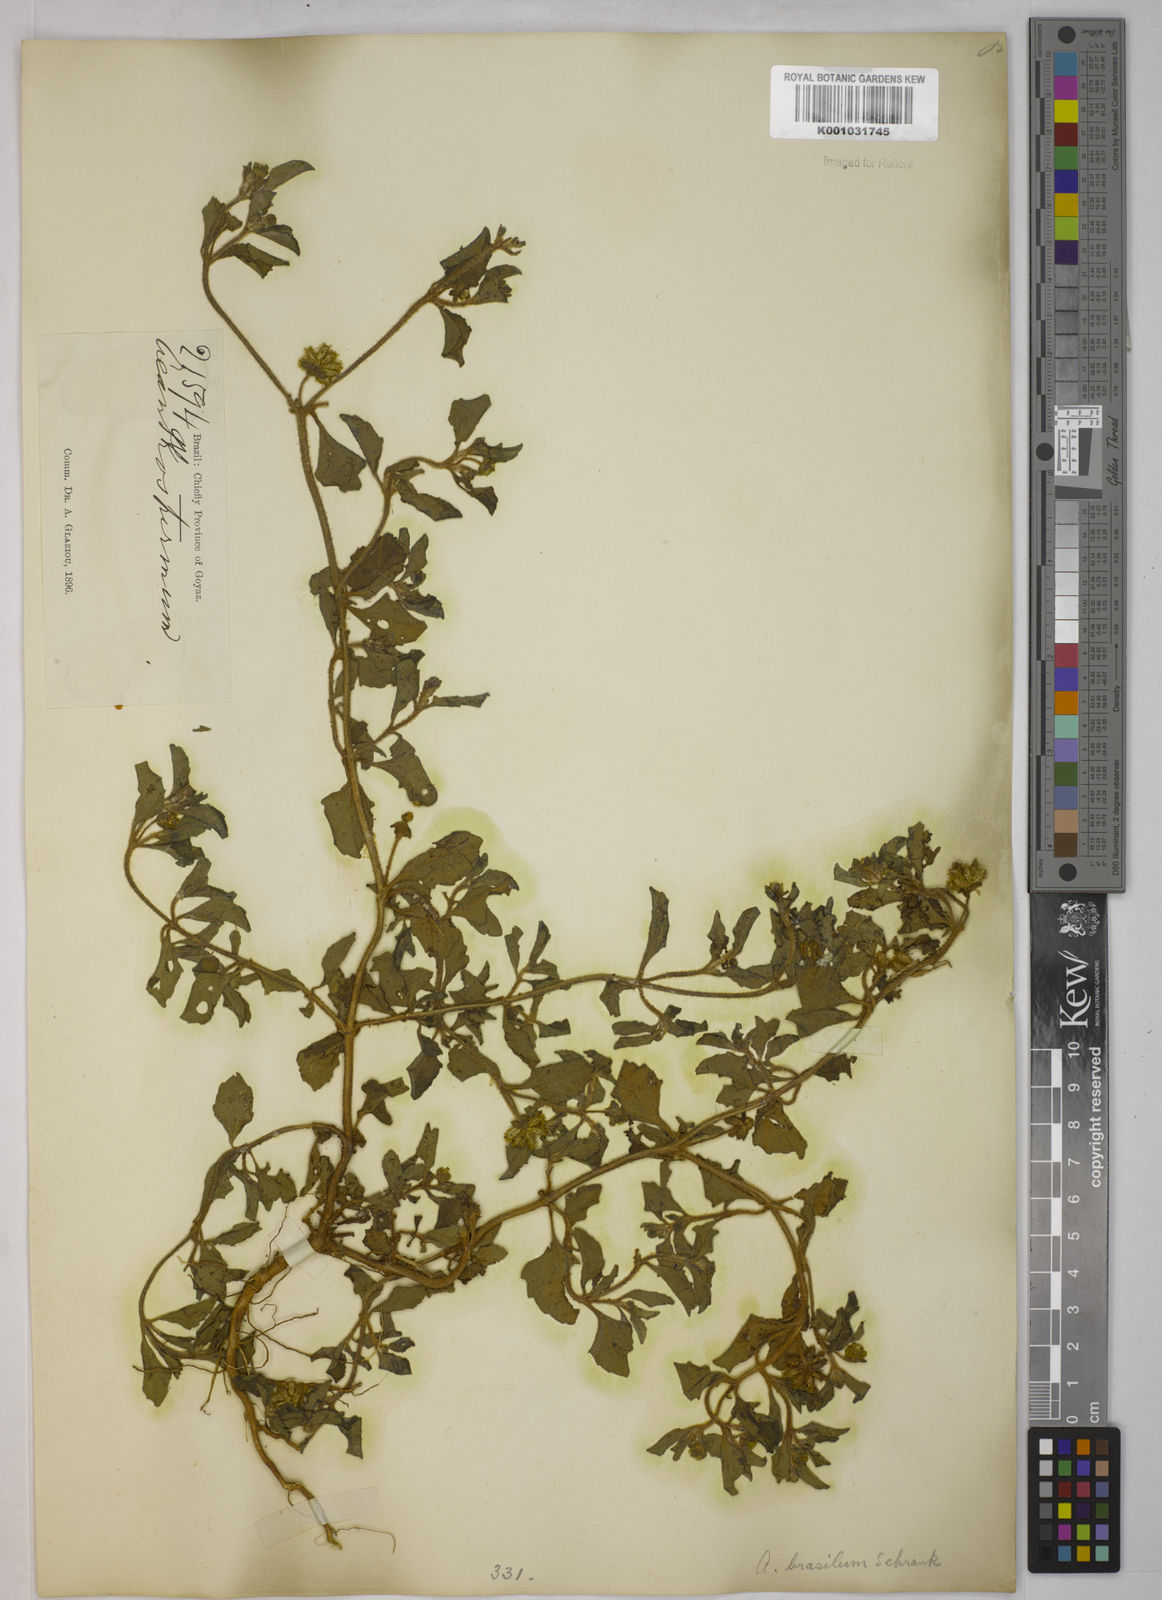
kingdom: Plantae
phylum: Tracheophyta
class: Magnoliopsida
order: Asterales
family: Asteraceae
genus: Acanthospermum
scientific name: Acanthospermum australe
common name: Paraguayan starbur
